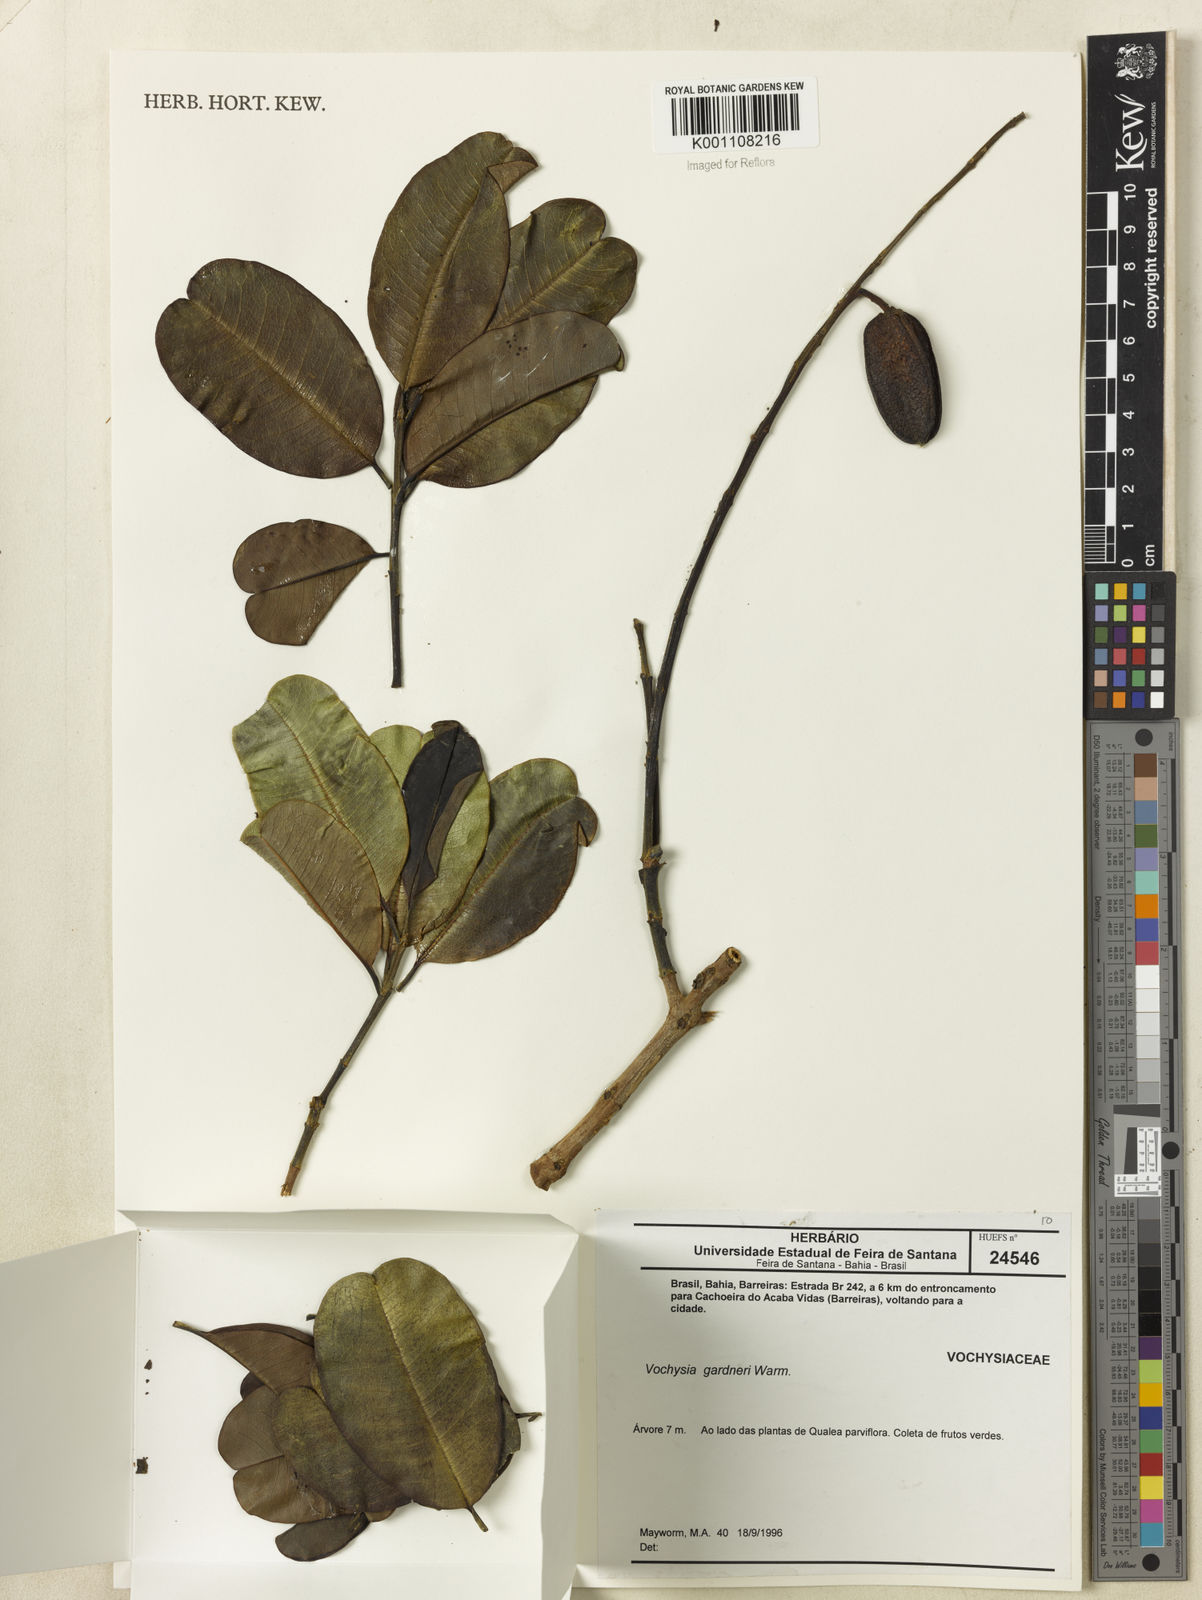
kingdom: Plantae
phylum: Tracheophyta
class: Magnoliopsida
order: Myrtales
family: Vochysiaceae
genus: Vochysia
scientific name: Vochysia gardneri
